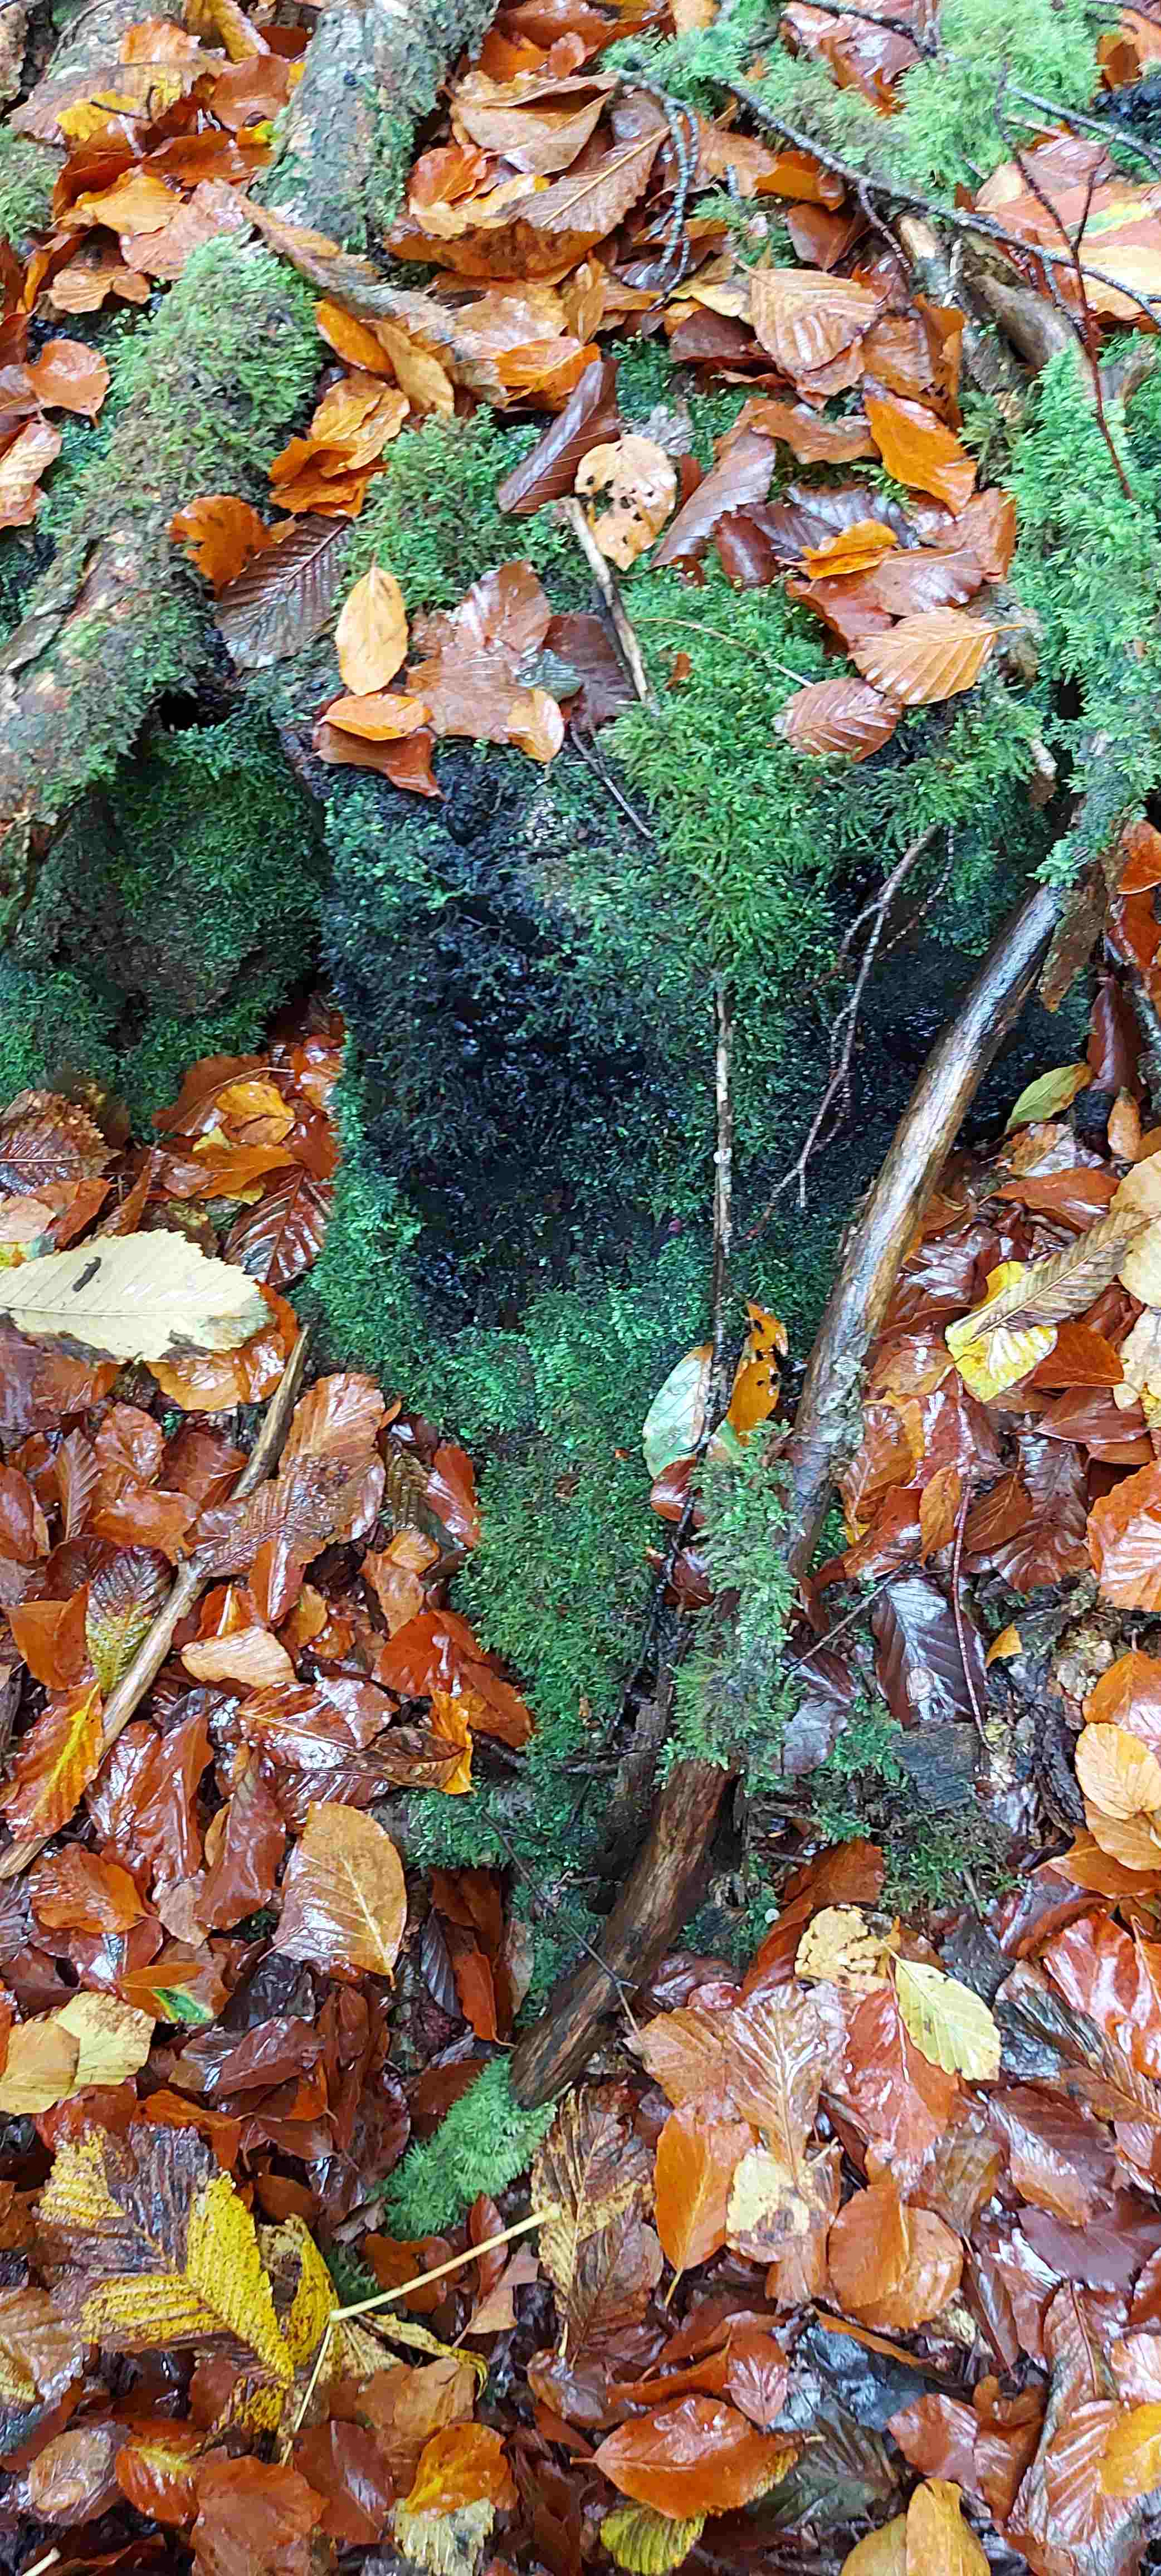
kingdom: Fungi
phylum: Ascomycota
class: Sordariomycetes
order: Xylariales
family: Xylariaceae
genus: Kretzschmaria
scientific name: Kretzschmaria deusta
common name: stor kulsvamp
